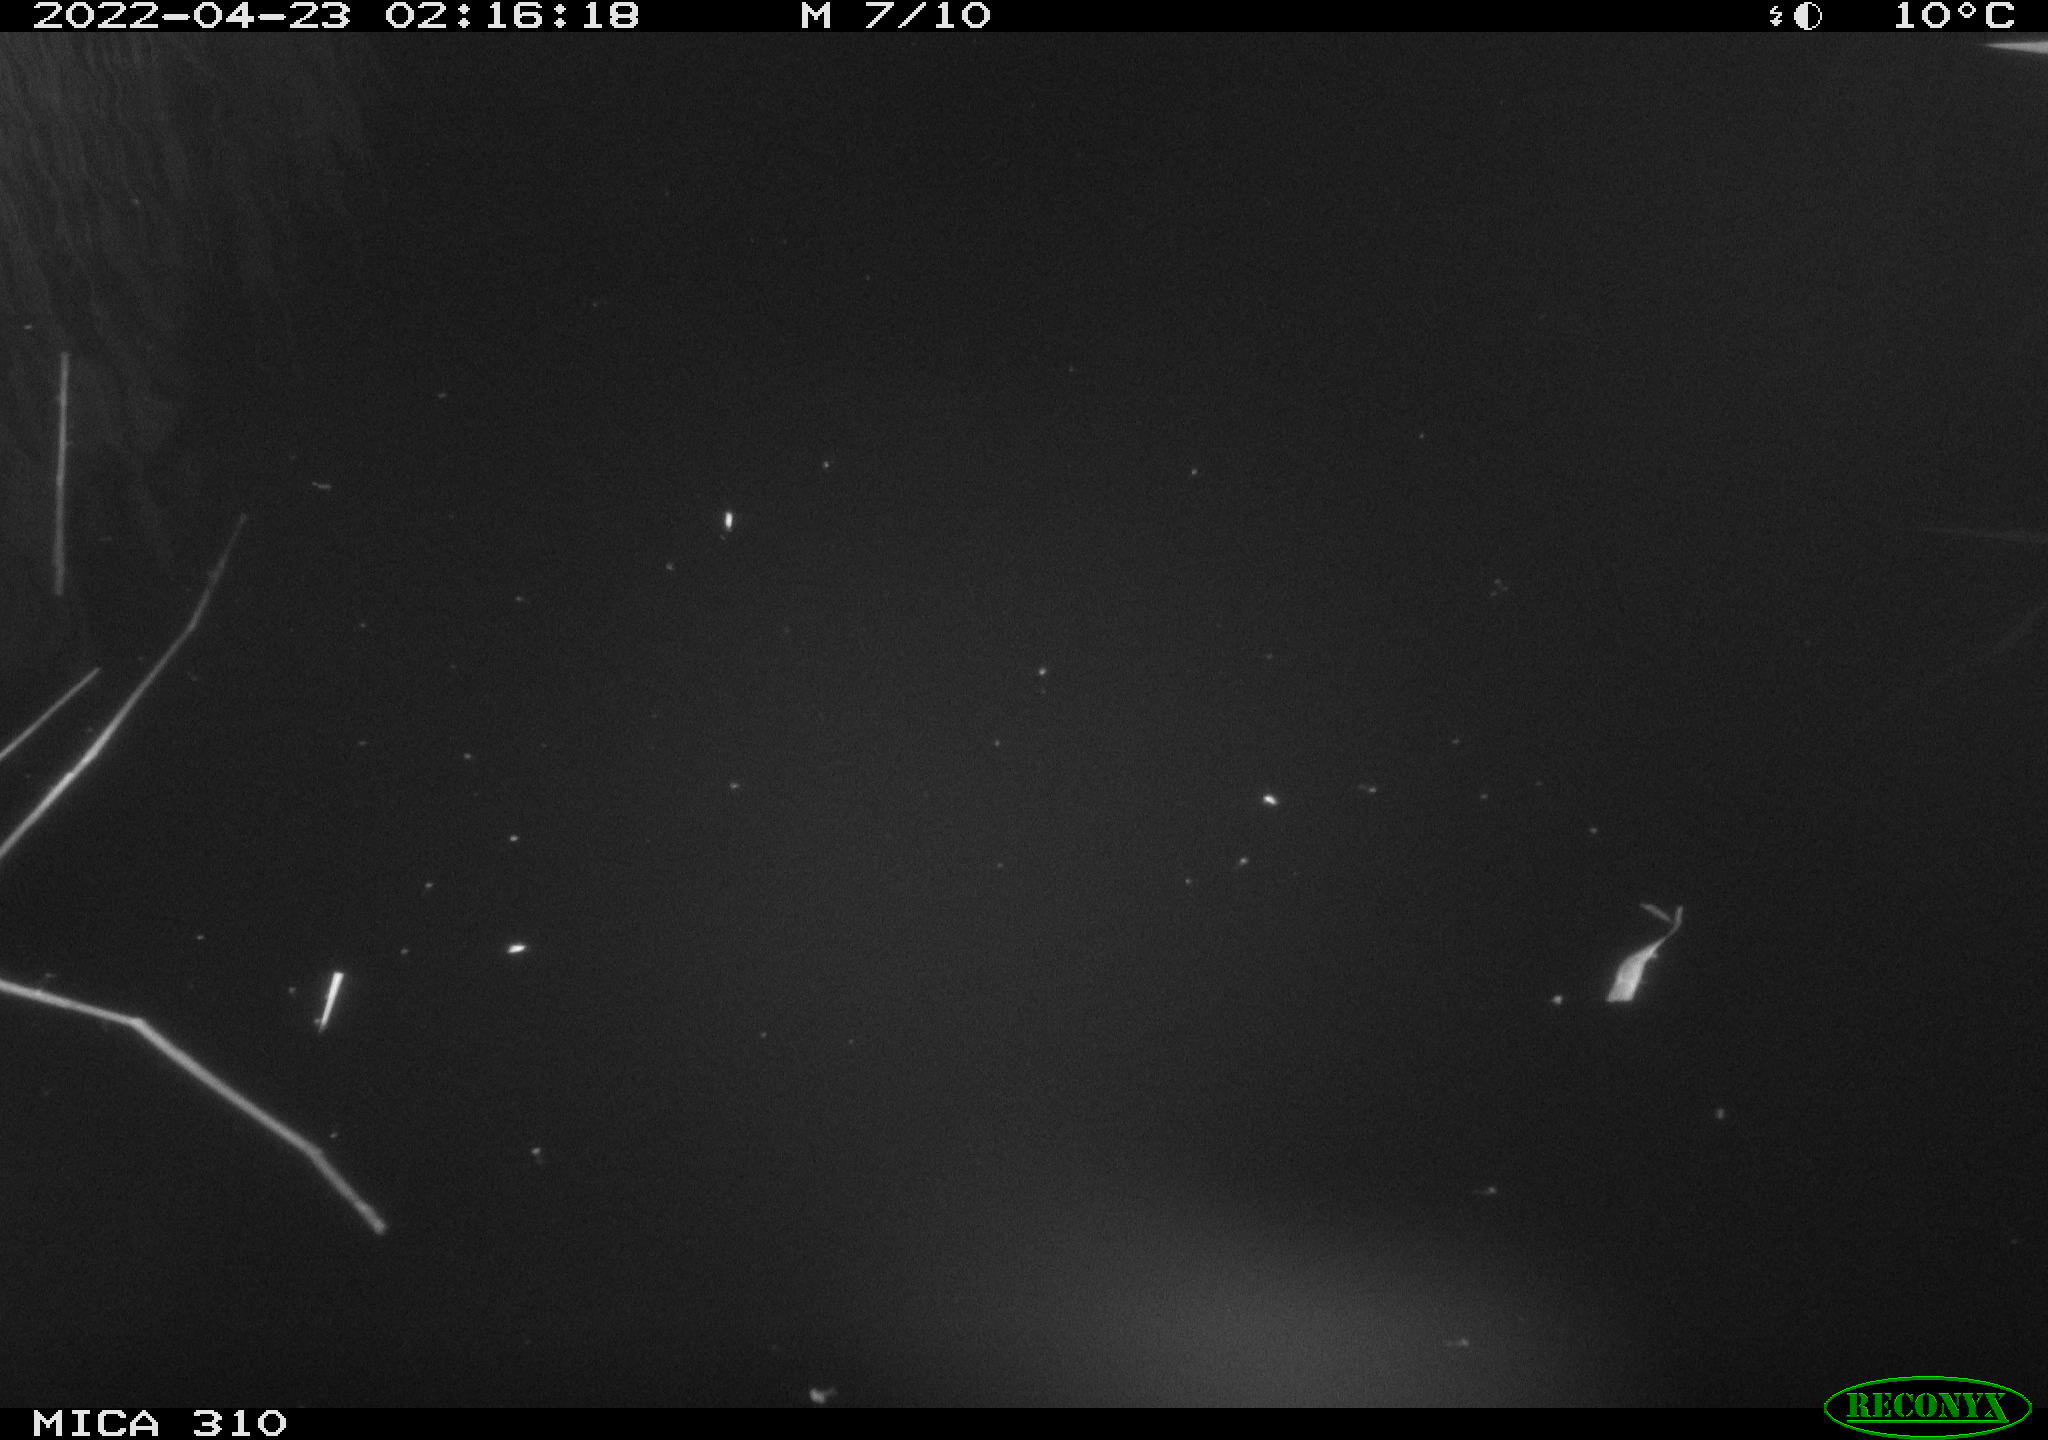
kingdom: Animalia
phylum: Chordata
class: Aves
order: Anseriformes
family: Anatidae
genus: Anas
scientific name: Anas platyrhynchos
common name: Mallard
